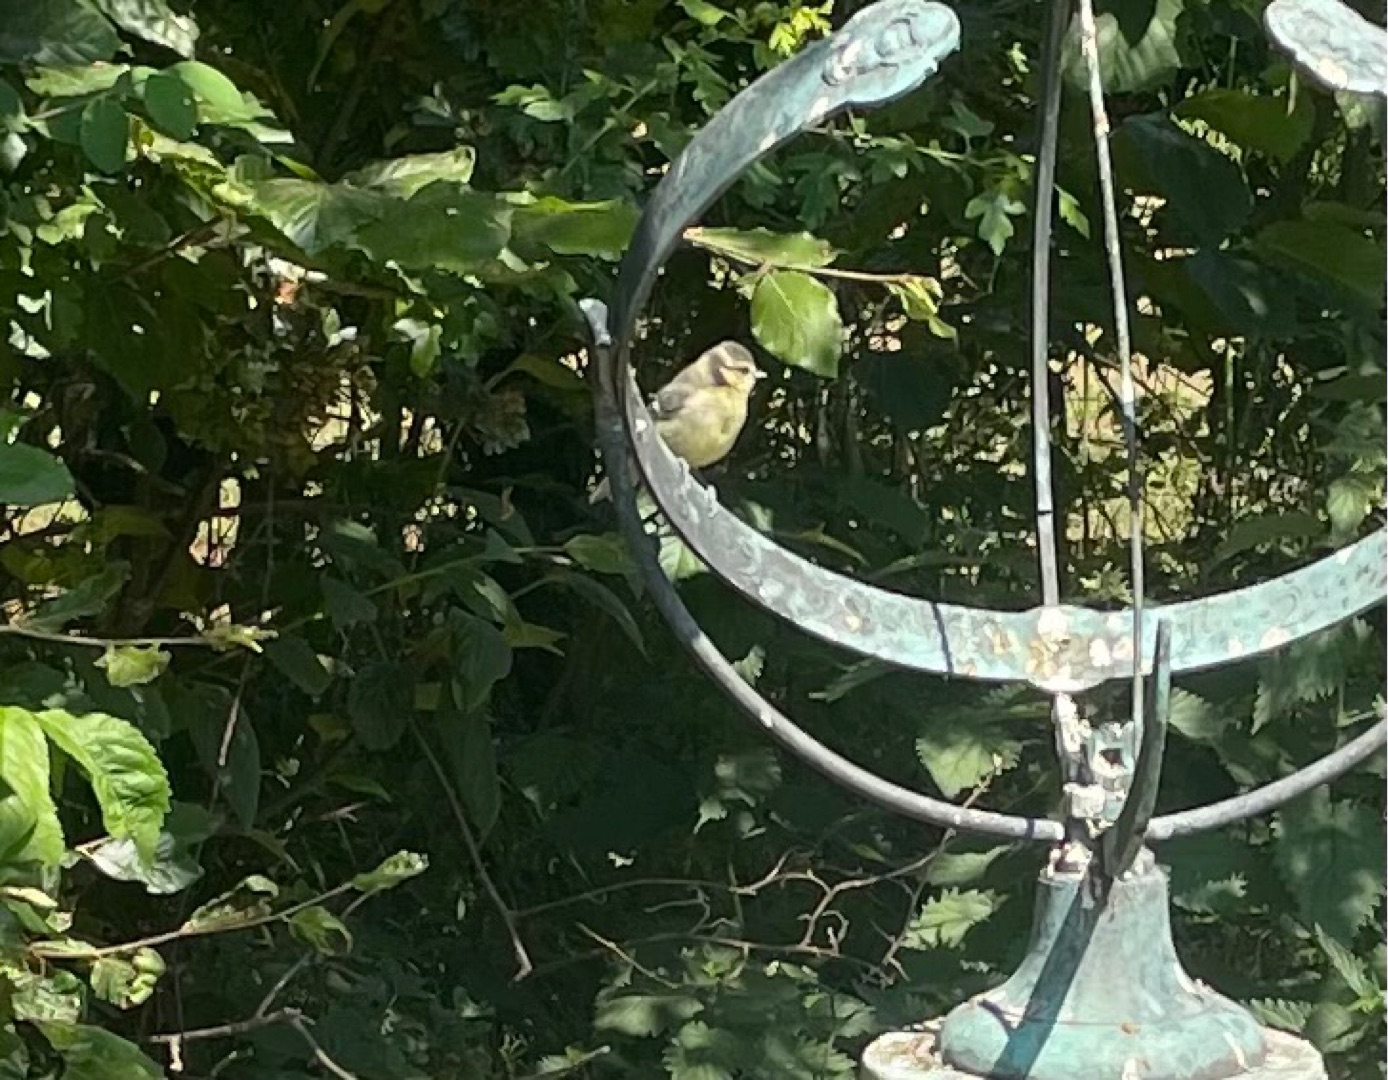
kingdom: Animalia
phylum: Chordata
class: Aves
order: Passeriformes
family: Paridae
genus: Cyanistes
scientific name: Cyanistes caeruleus
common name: Blåmejse
